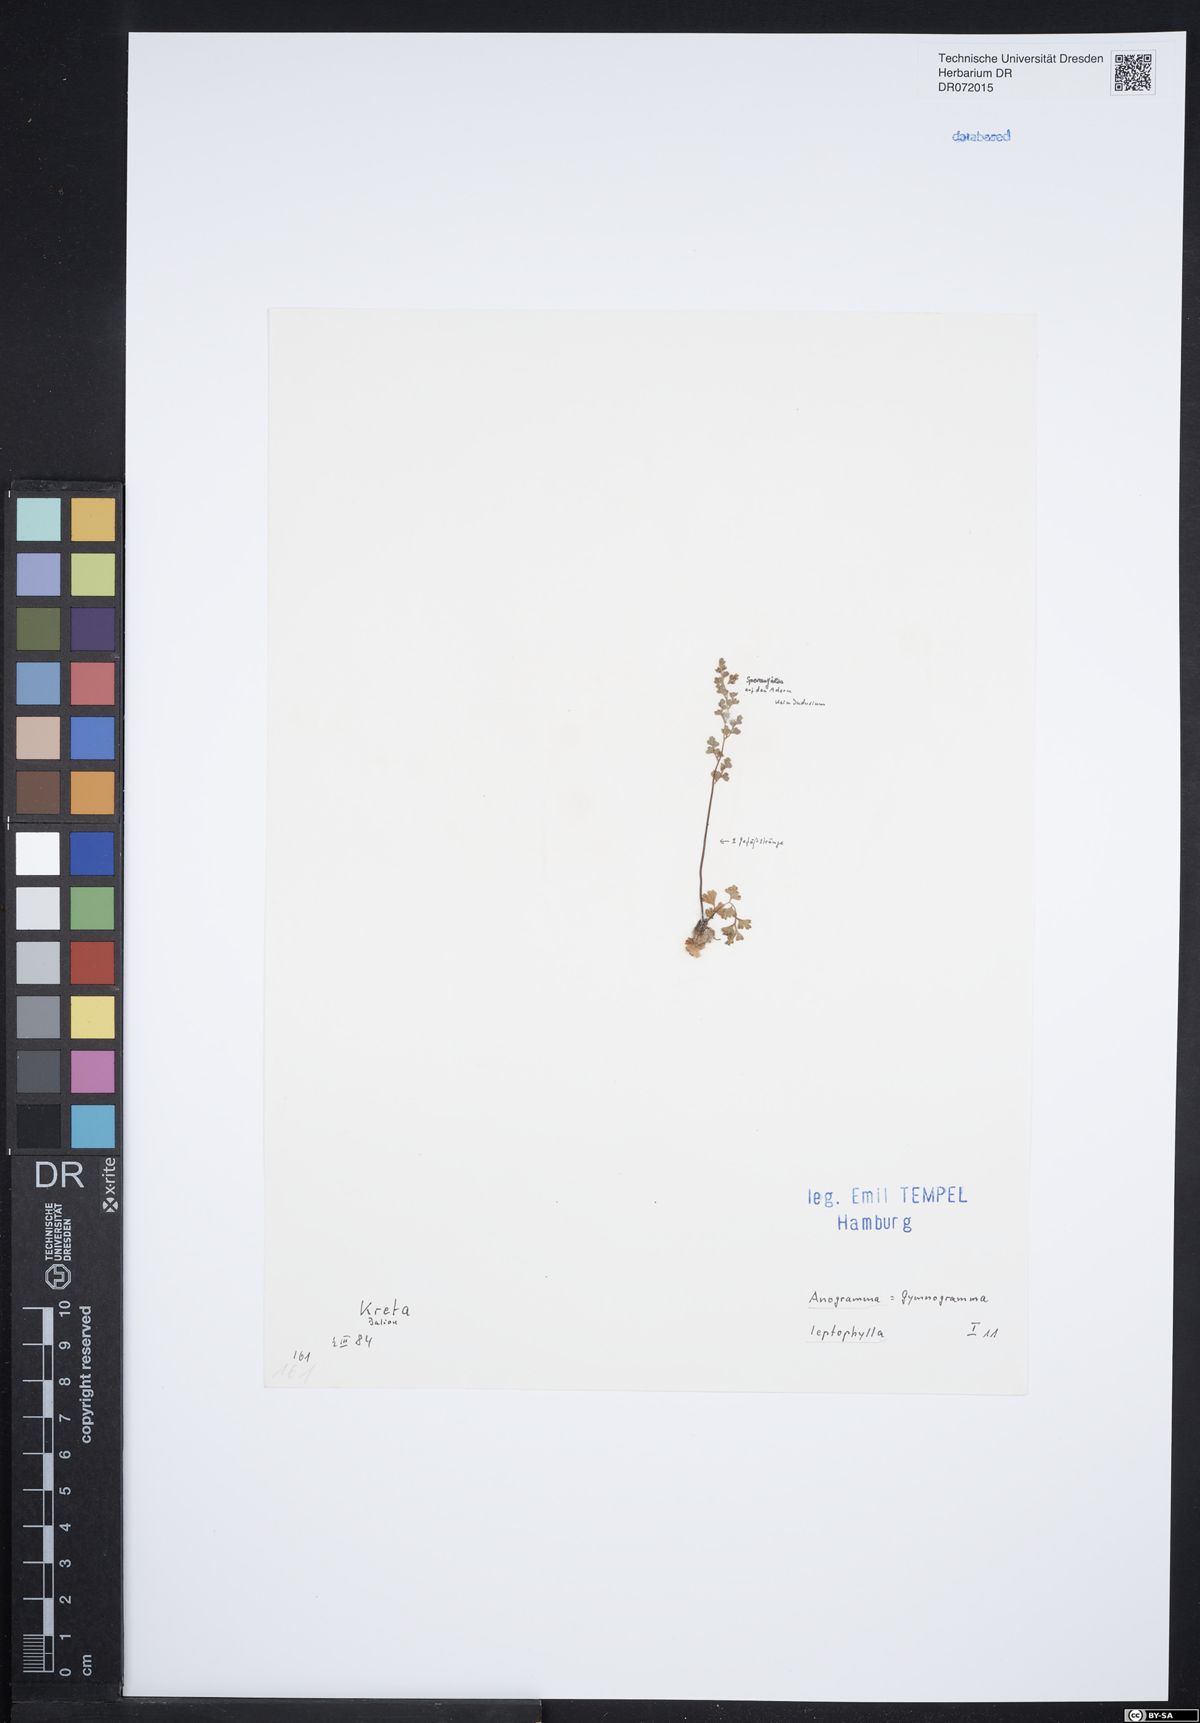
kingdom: Plantae
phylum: Tracheophyta
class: Polypodiopsida
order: Polypodiales
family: Pteridaceae
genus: Anogramma
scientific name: Anogramma leptophylla
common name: Jersey fern
